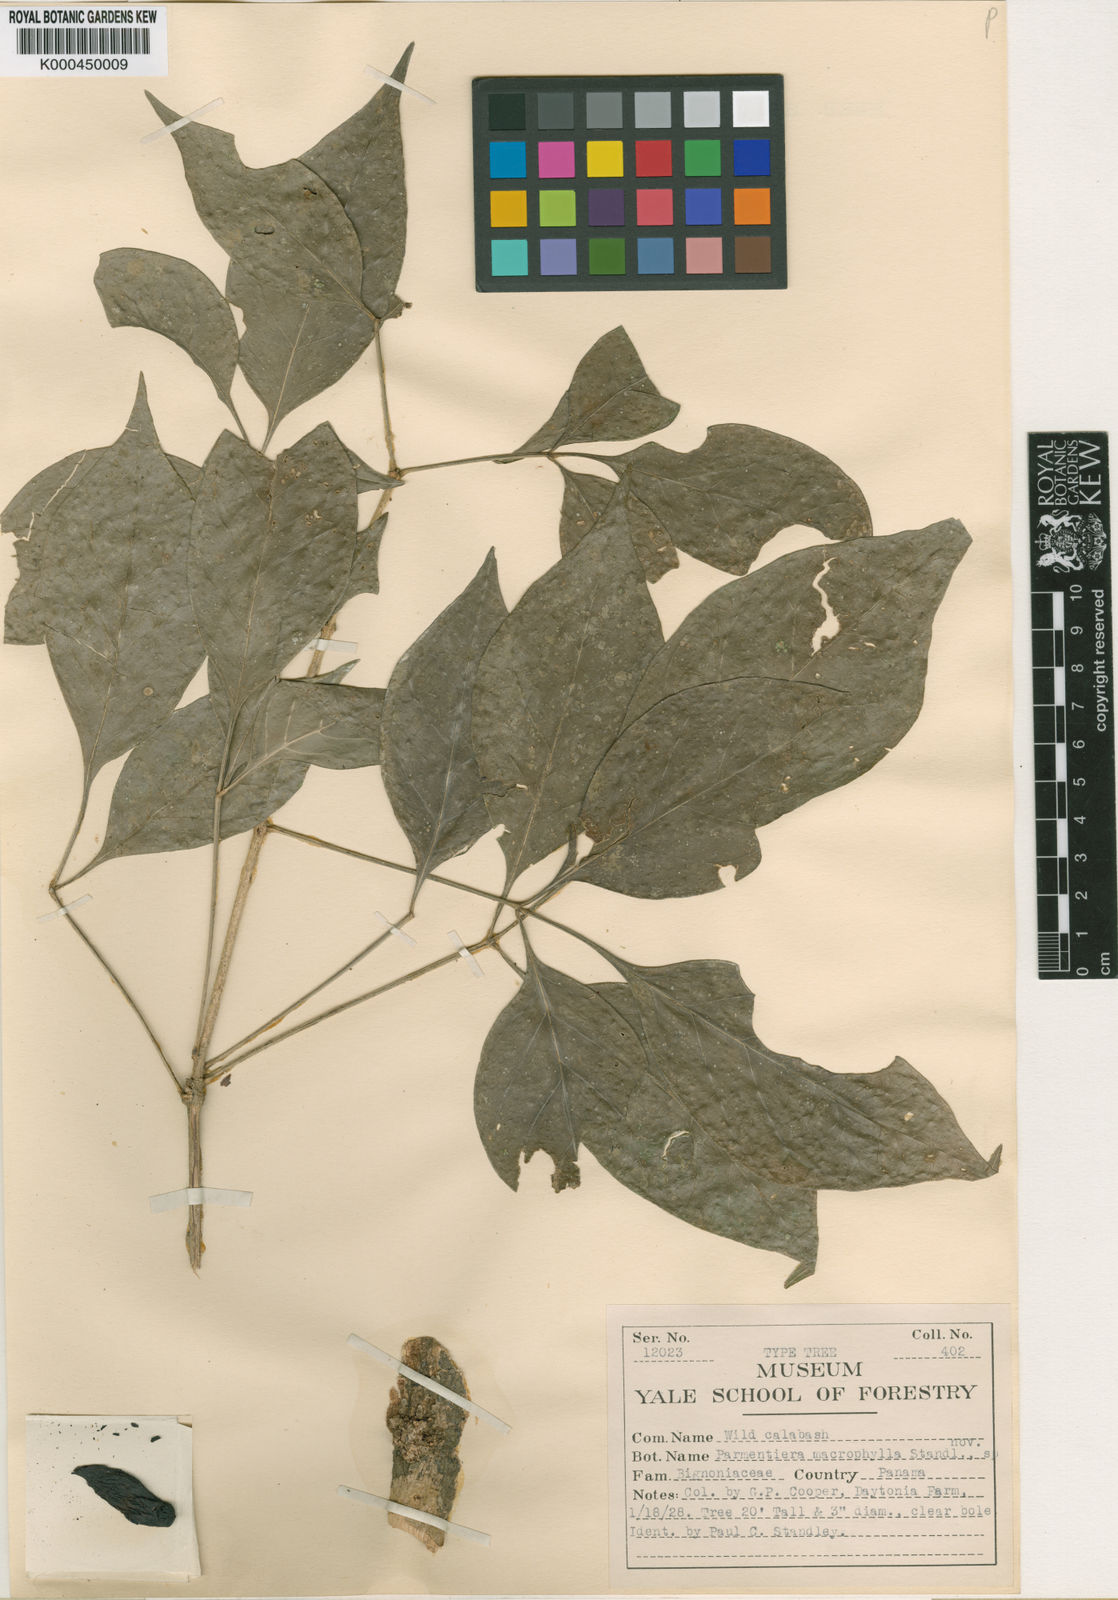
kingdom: Plantae
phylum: Tracheophyta
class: Magnoliopsida
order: Lamiales
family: Bignoniaceae
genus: Parmentiera
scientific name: Parmentiera macrophylla
